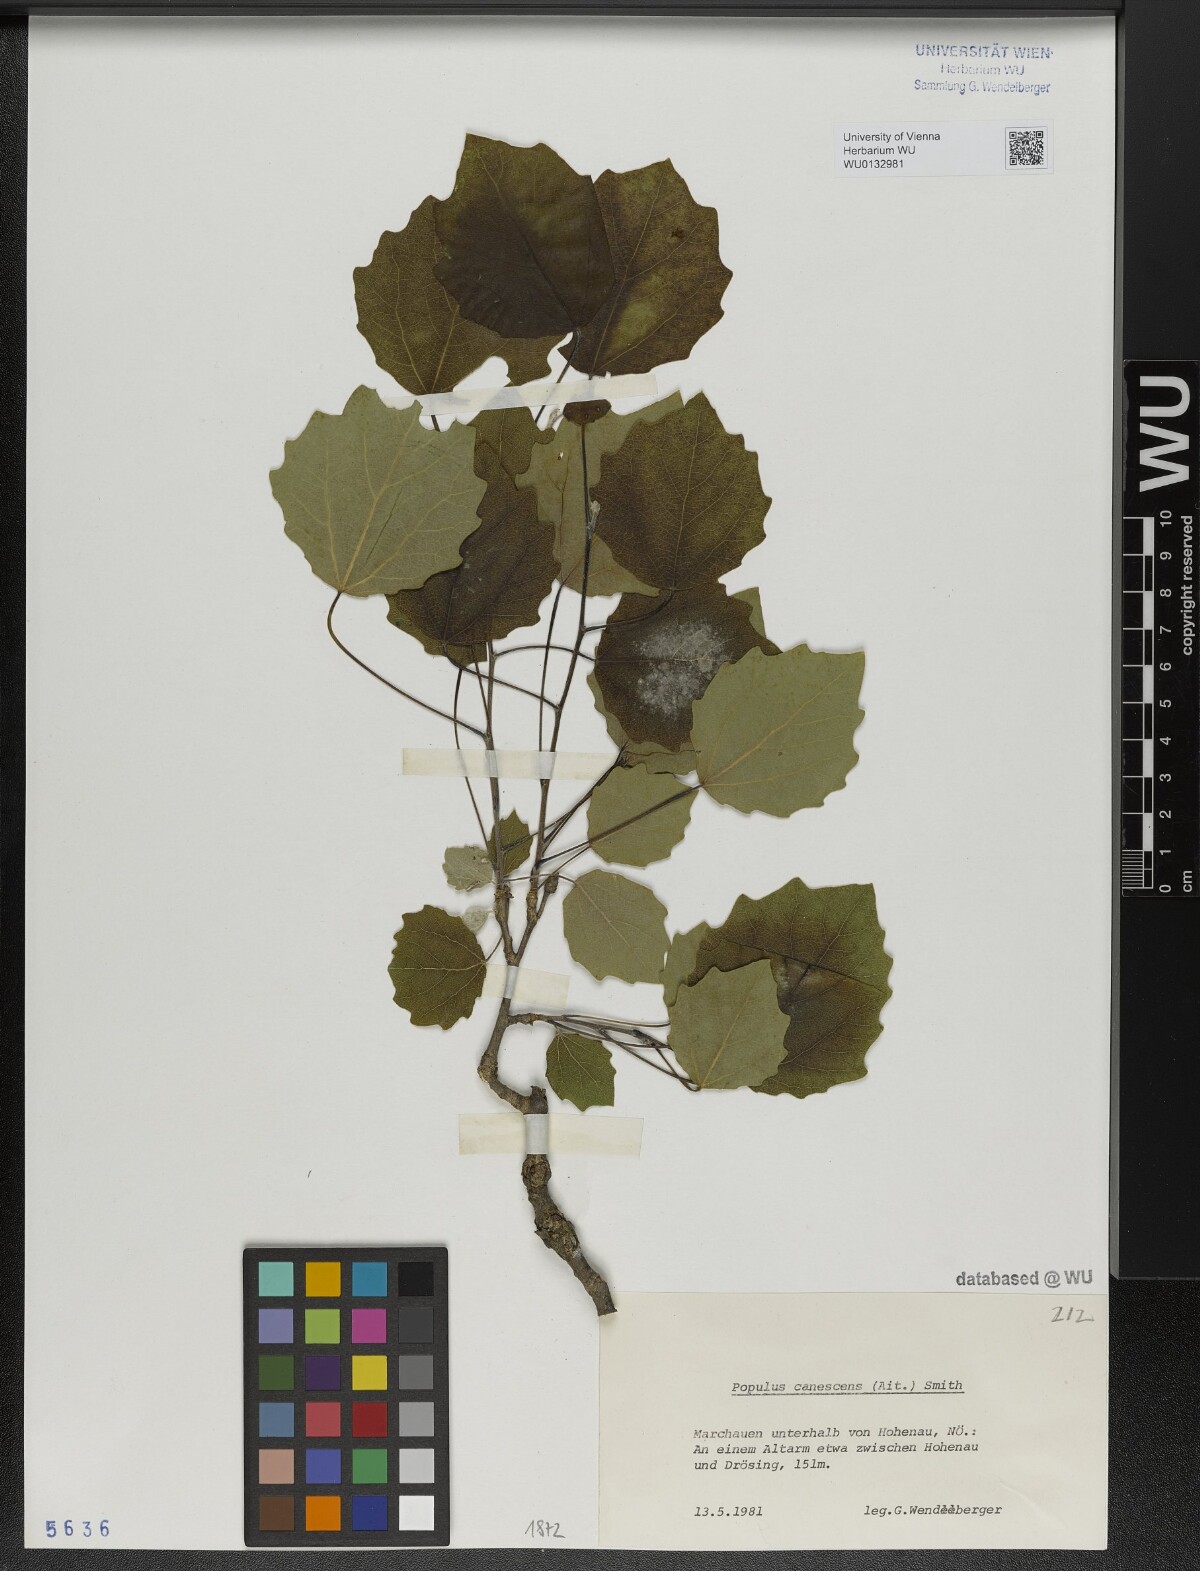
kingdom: Plantae
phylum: Tracheophyta
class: Magnoliopsida
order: Malpighiales
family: Salicaceae
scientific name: Salicaceae
